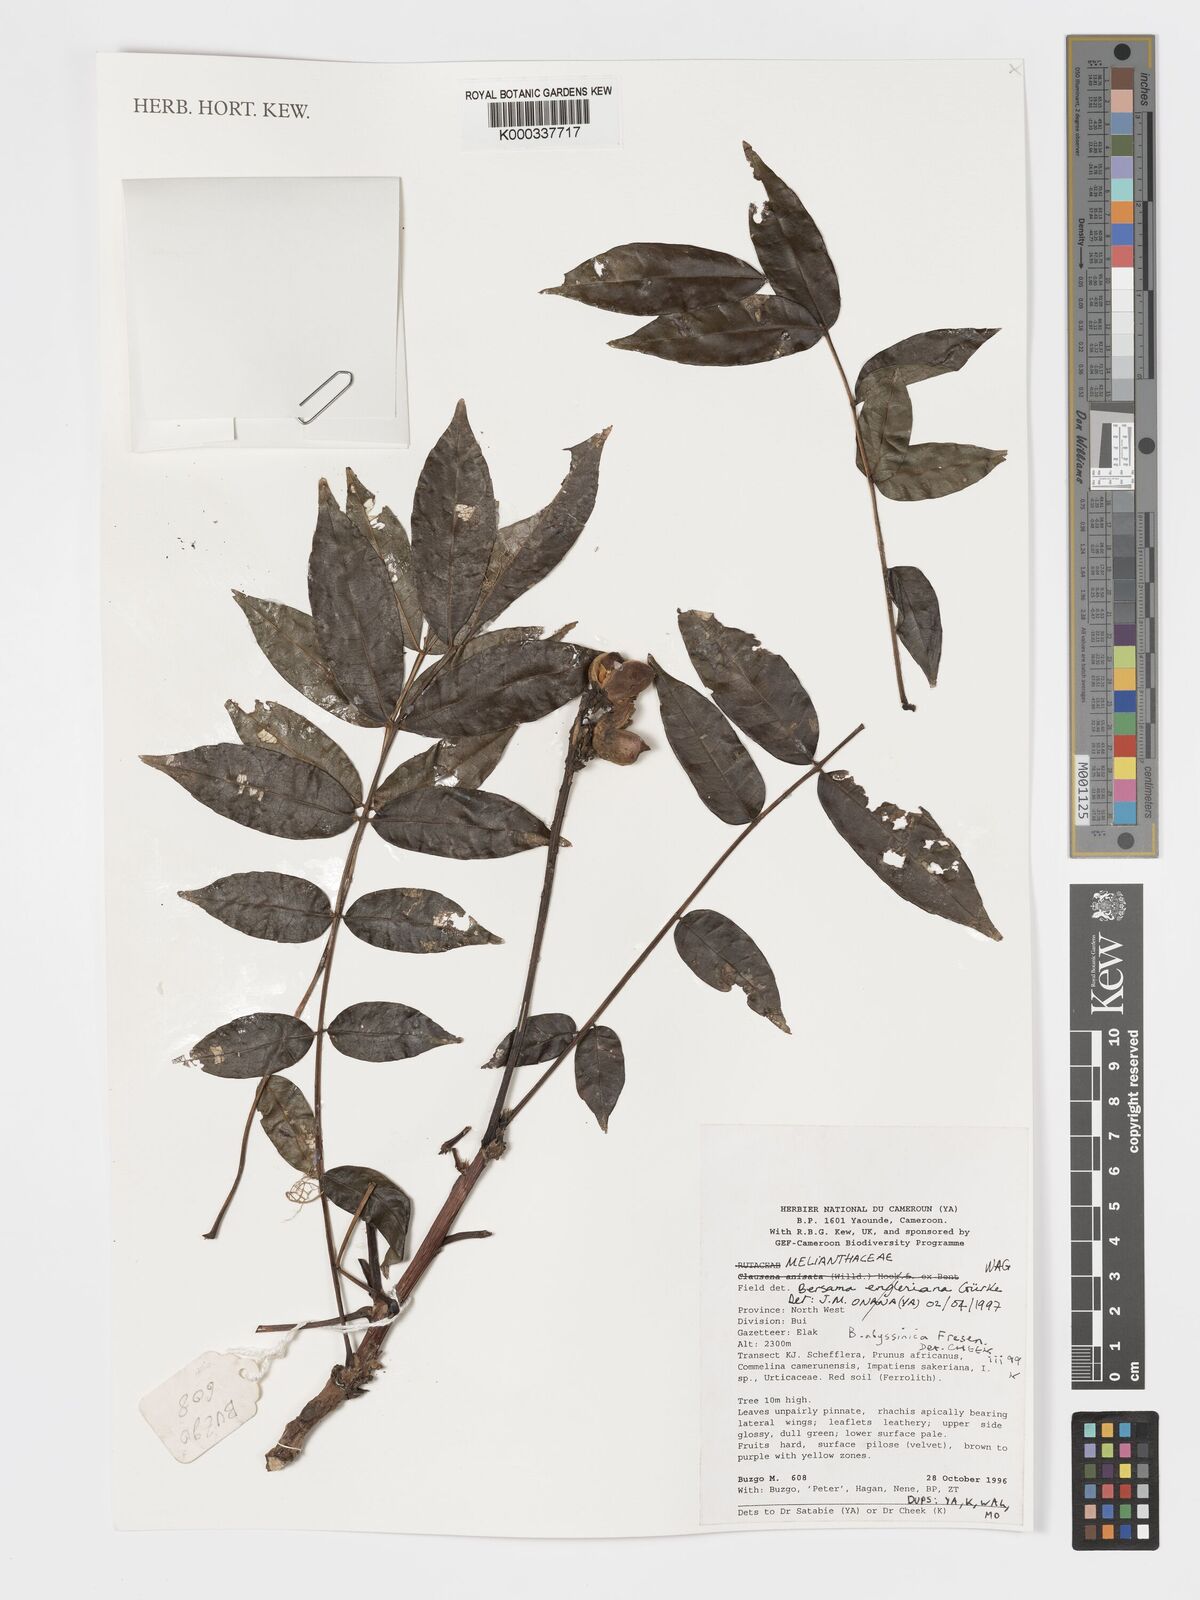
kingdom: Plantae
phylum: Tracheophyta
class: Magnoliopsida
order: Geraniales
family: Melianthaceae
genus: Bersama
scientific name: Bersama abyssinica
